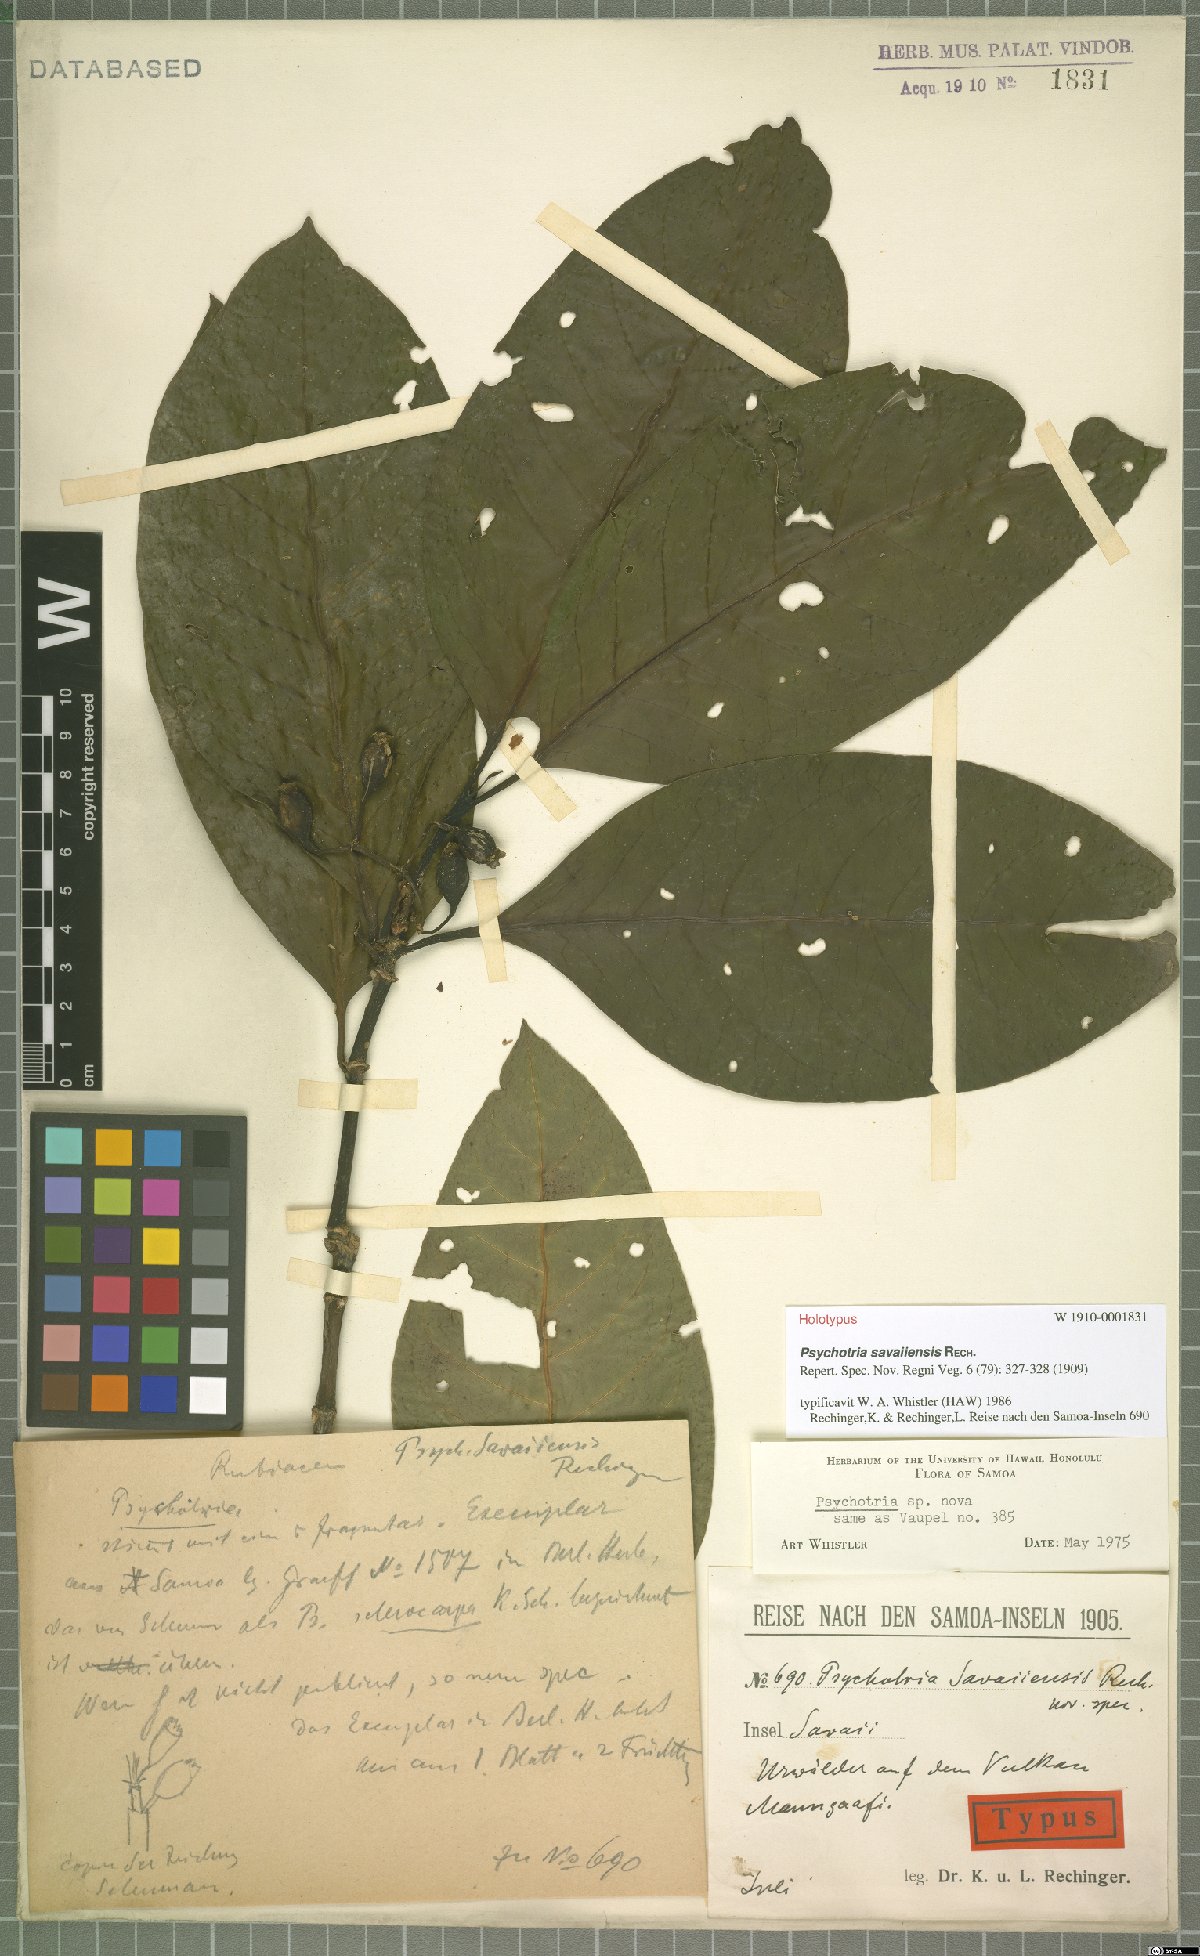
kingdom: Plantae
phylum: Tracheophyta
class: Magnoliopsida
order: Gentianales
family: Rubiaceae
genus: Eumachia
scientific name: Eumachia savaiiensis
